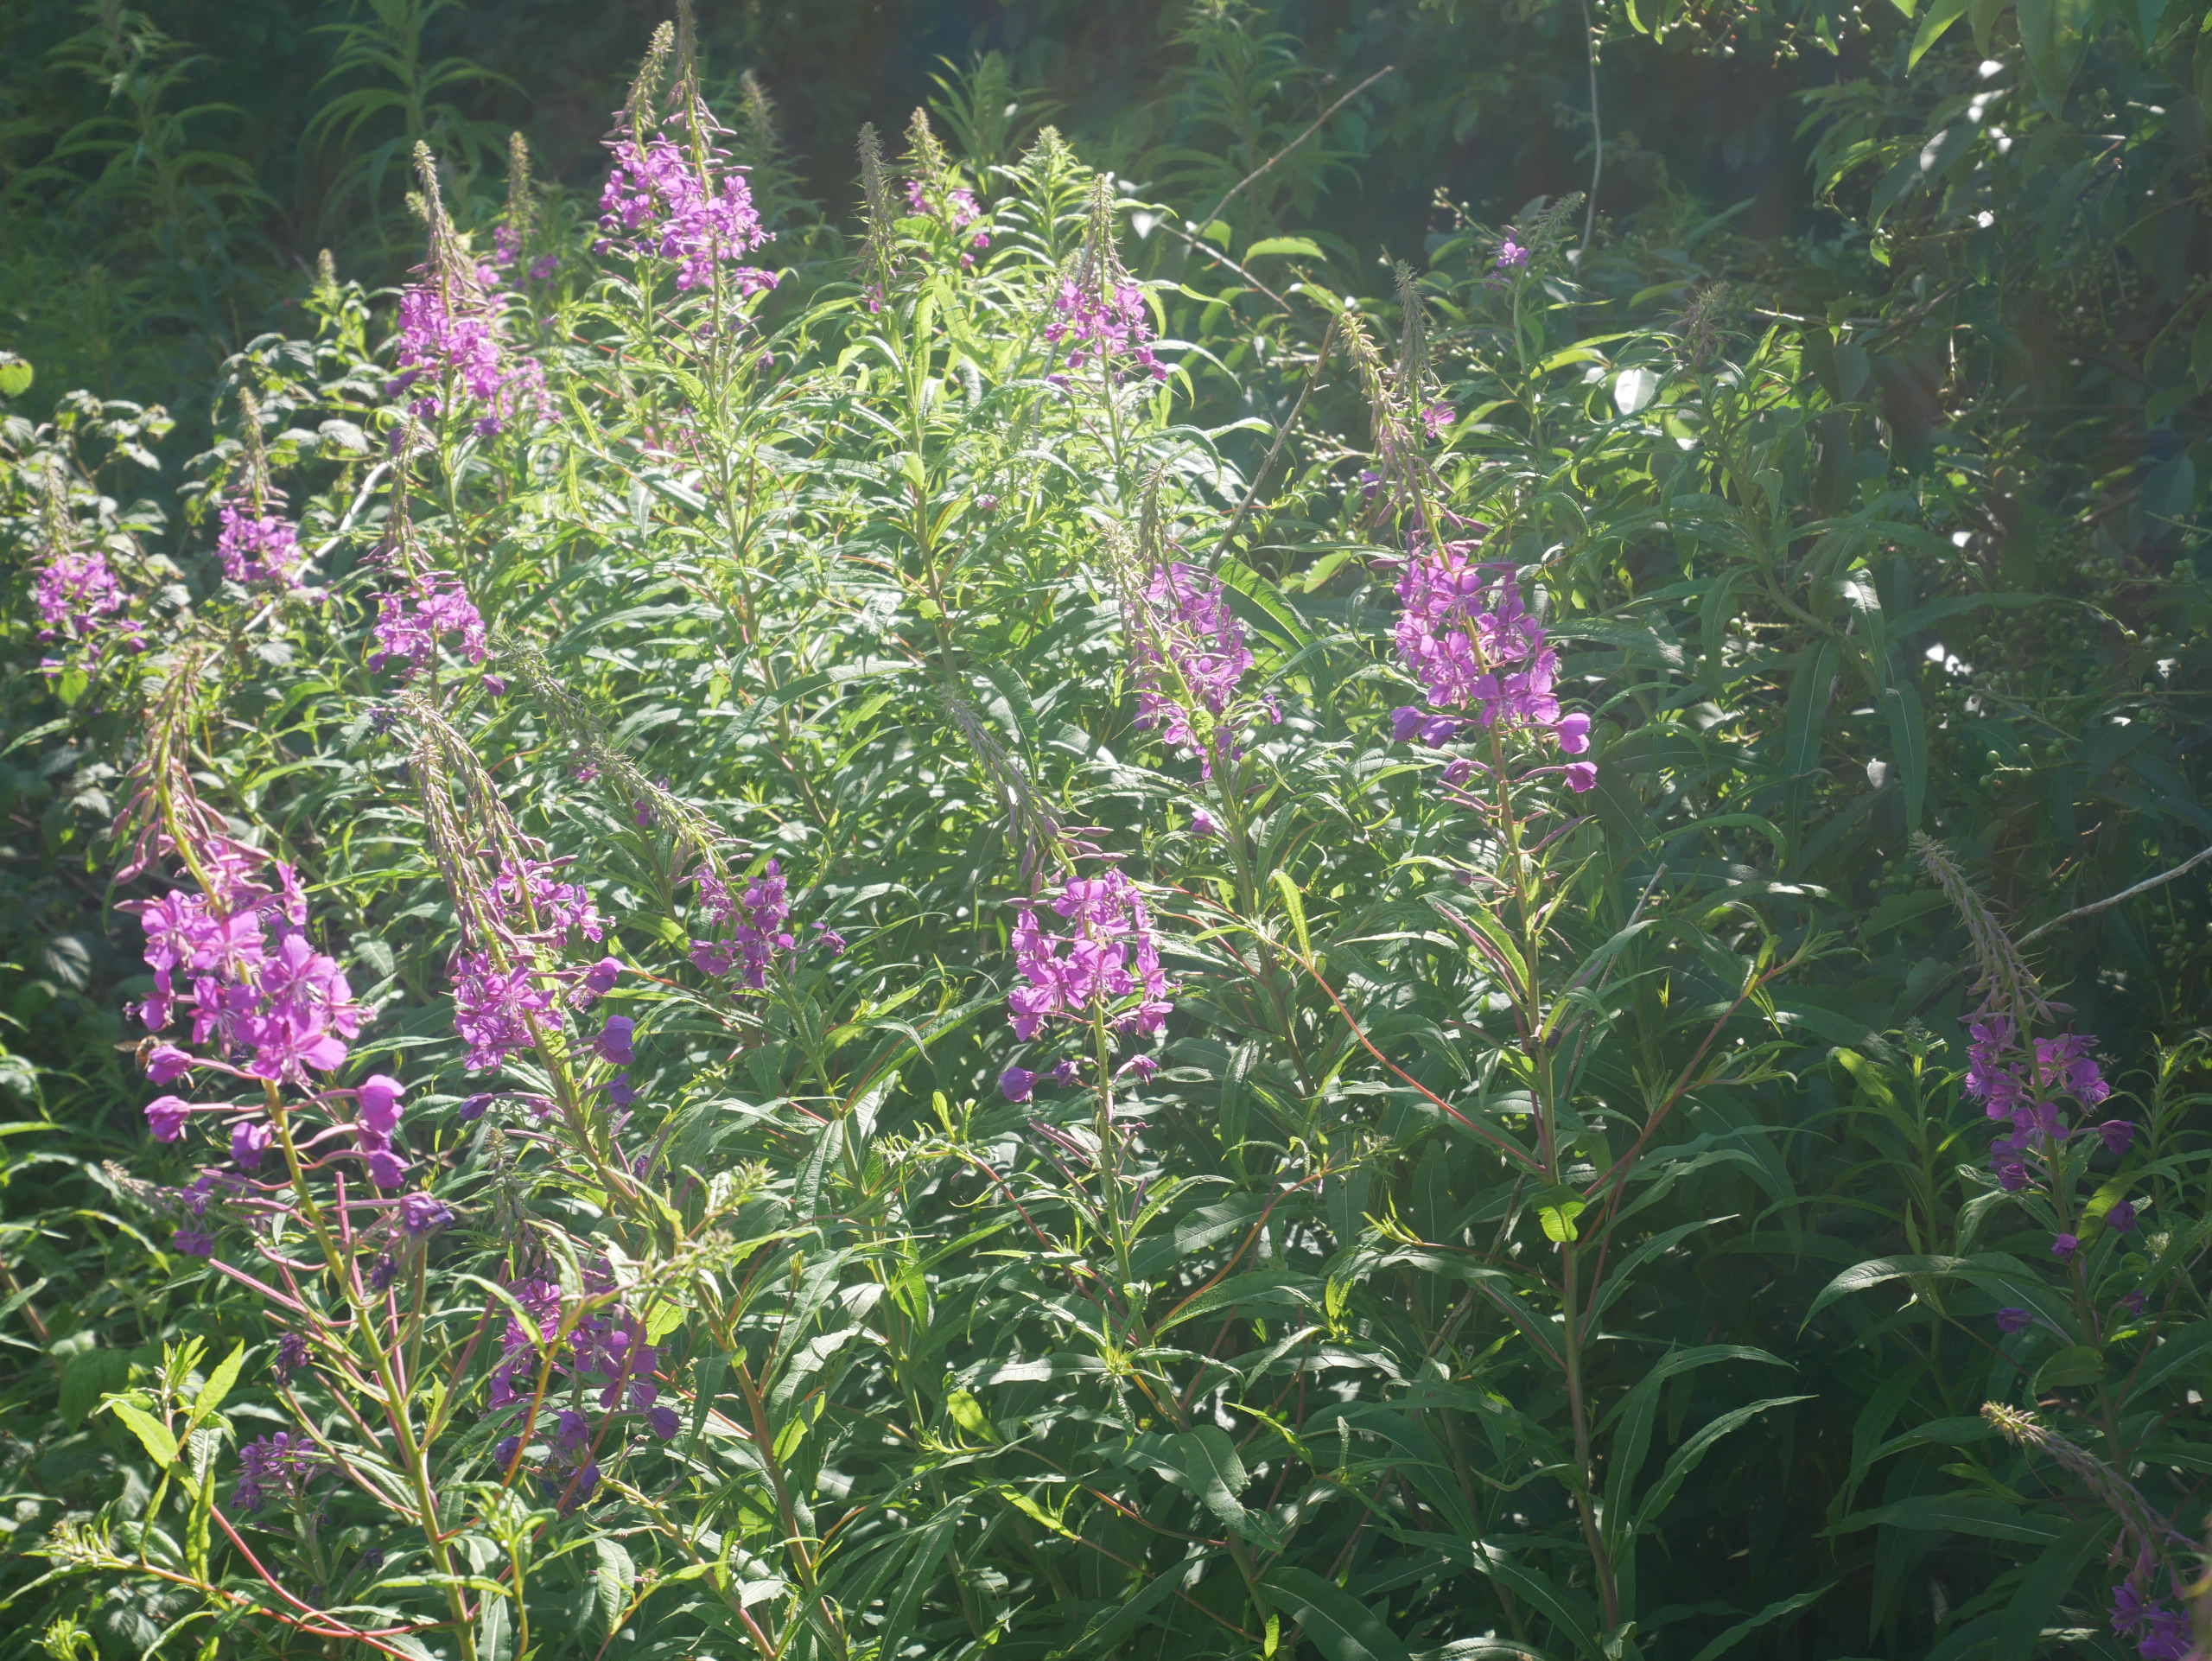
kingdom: Plantae
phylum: Tracheophyta
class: Magnoliopsida
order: Myrtales
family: Onagraceae
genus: Chamaenerion
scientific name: Chamaenerion angustifolium
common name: Gederams
